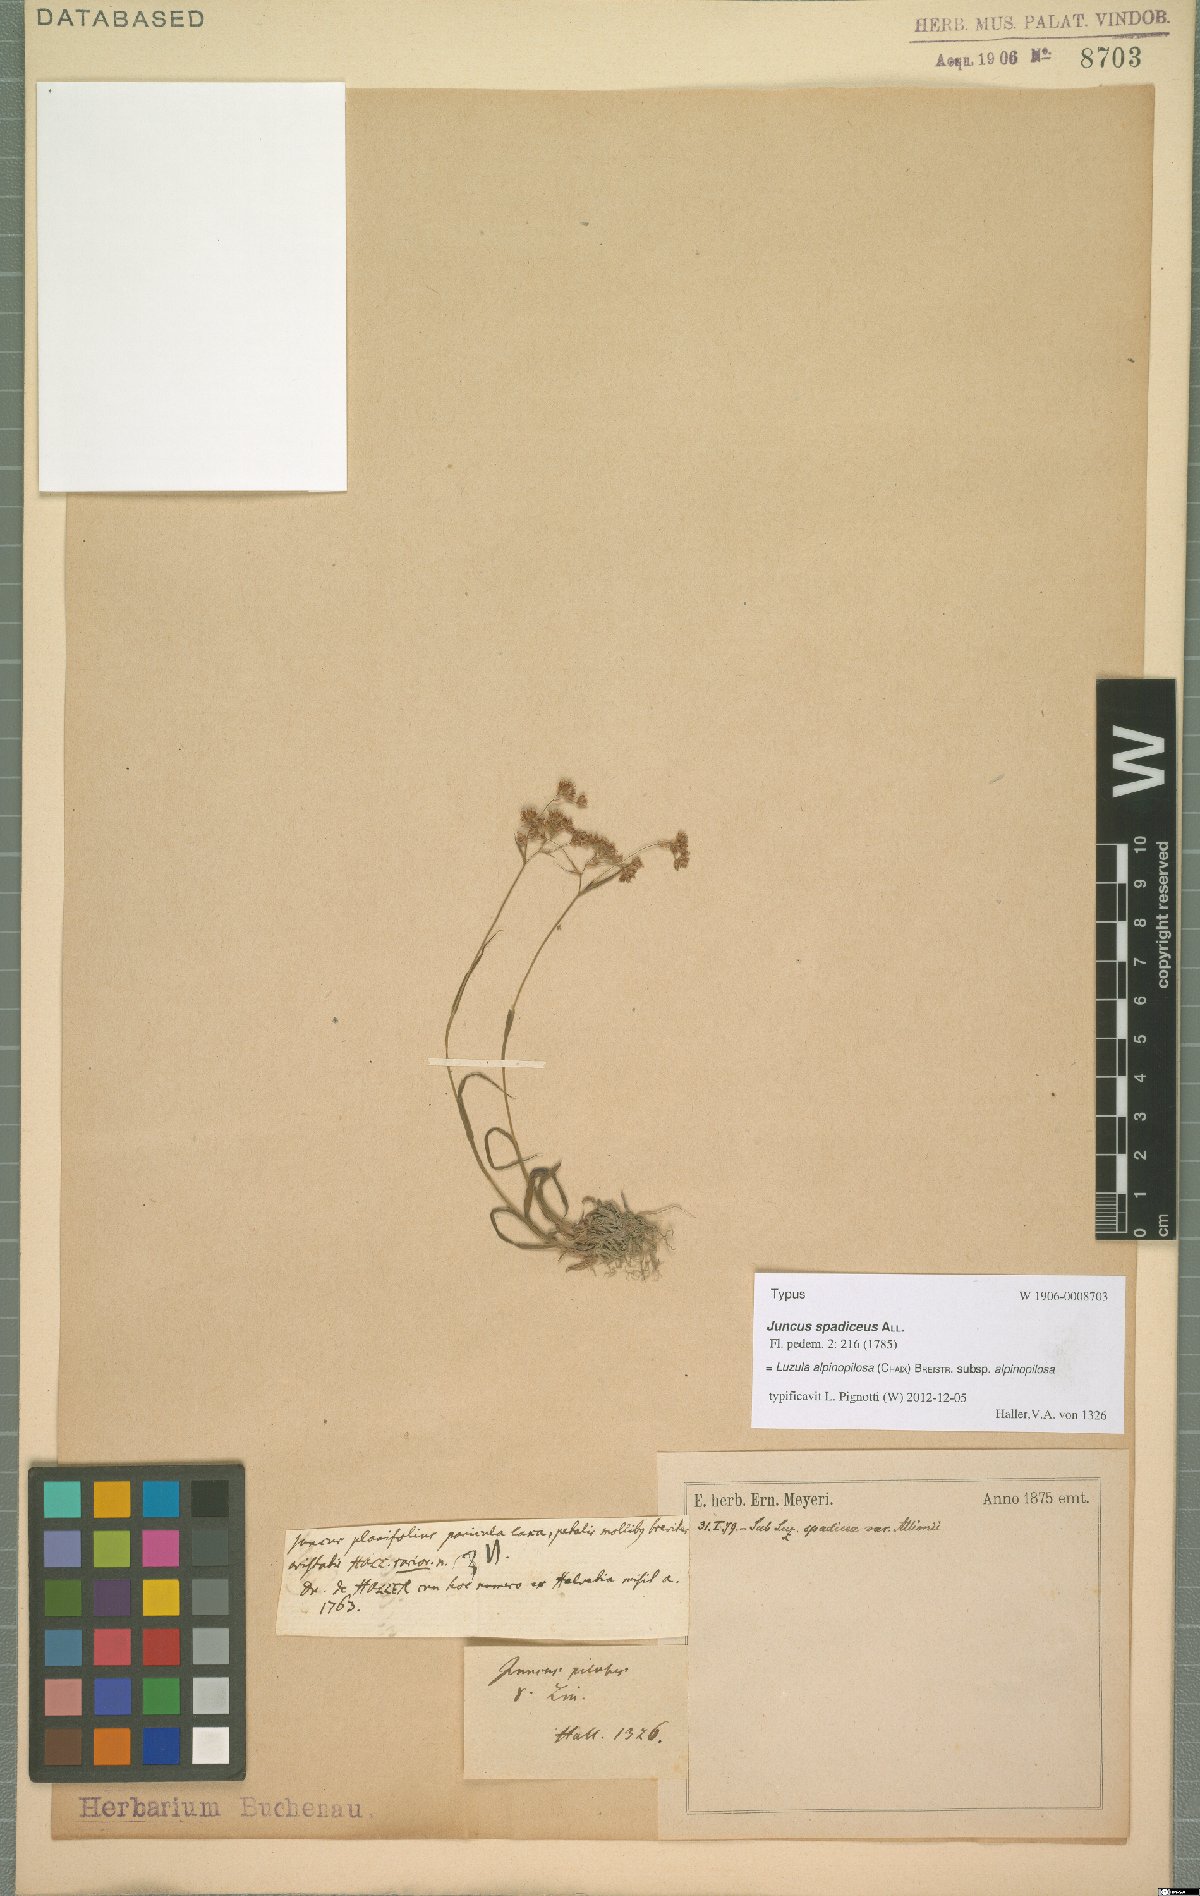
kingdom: Plantae
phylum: Tracheophyta
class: Liliopsida
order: Poales
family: Juncaceae
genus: Luzula
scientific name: Luzula alpinopilosa
